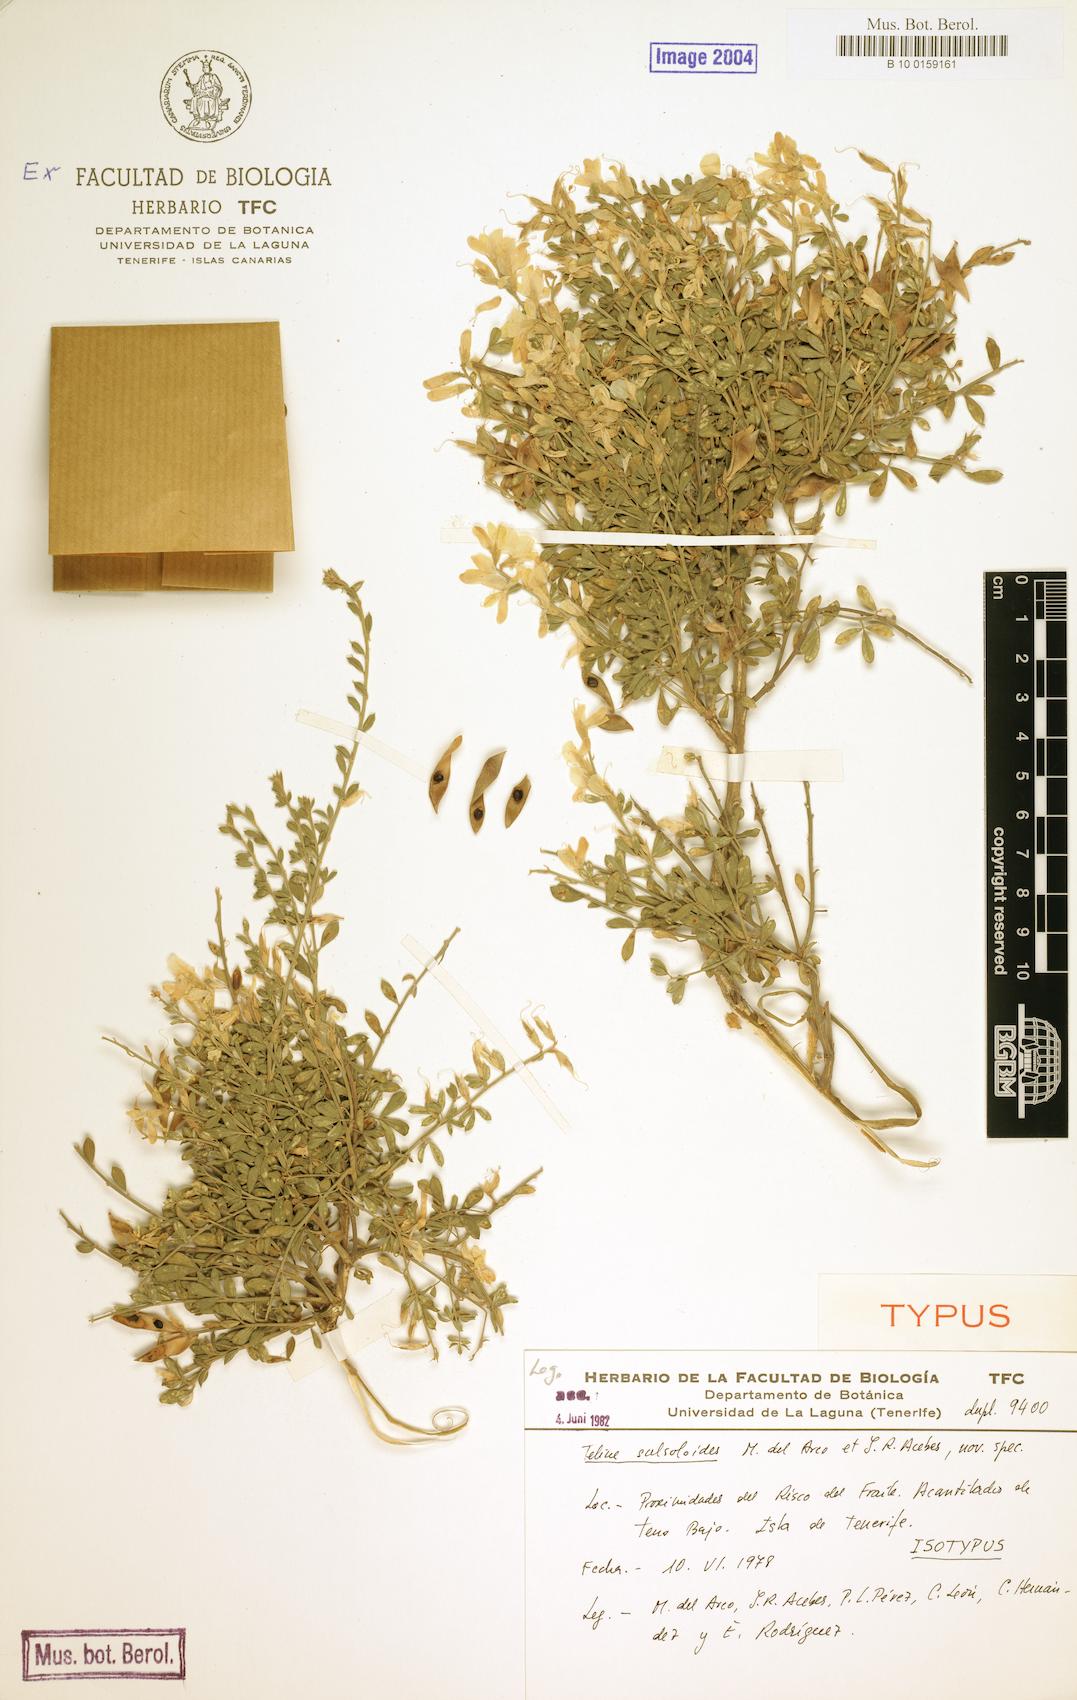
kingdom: Plantae
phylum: Tracheophyta
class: Magnoliopsida
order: Fabales
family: Fabaceae
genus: Genista
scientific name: Genista Teline salsoloides del
